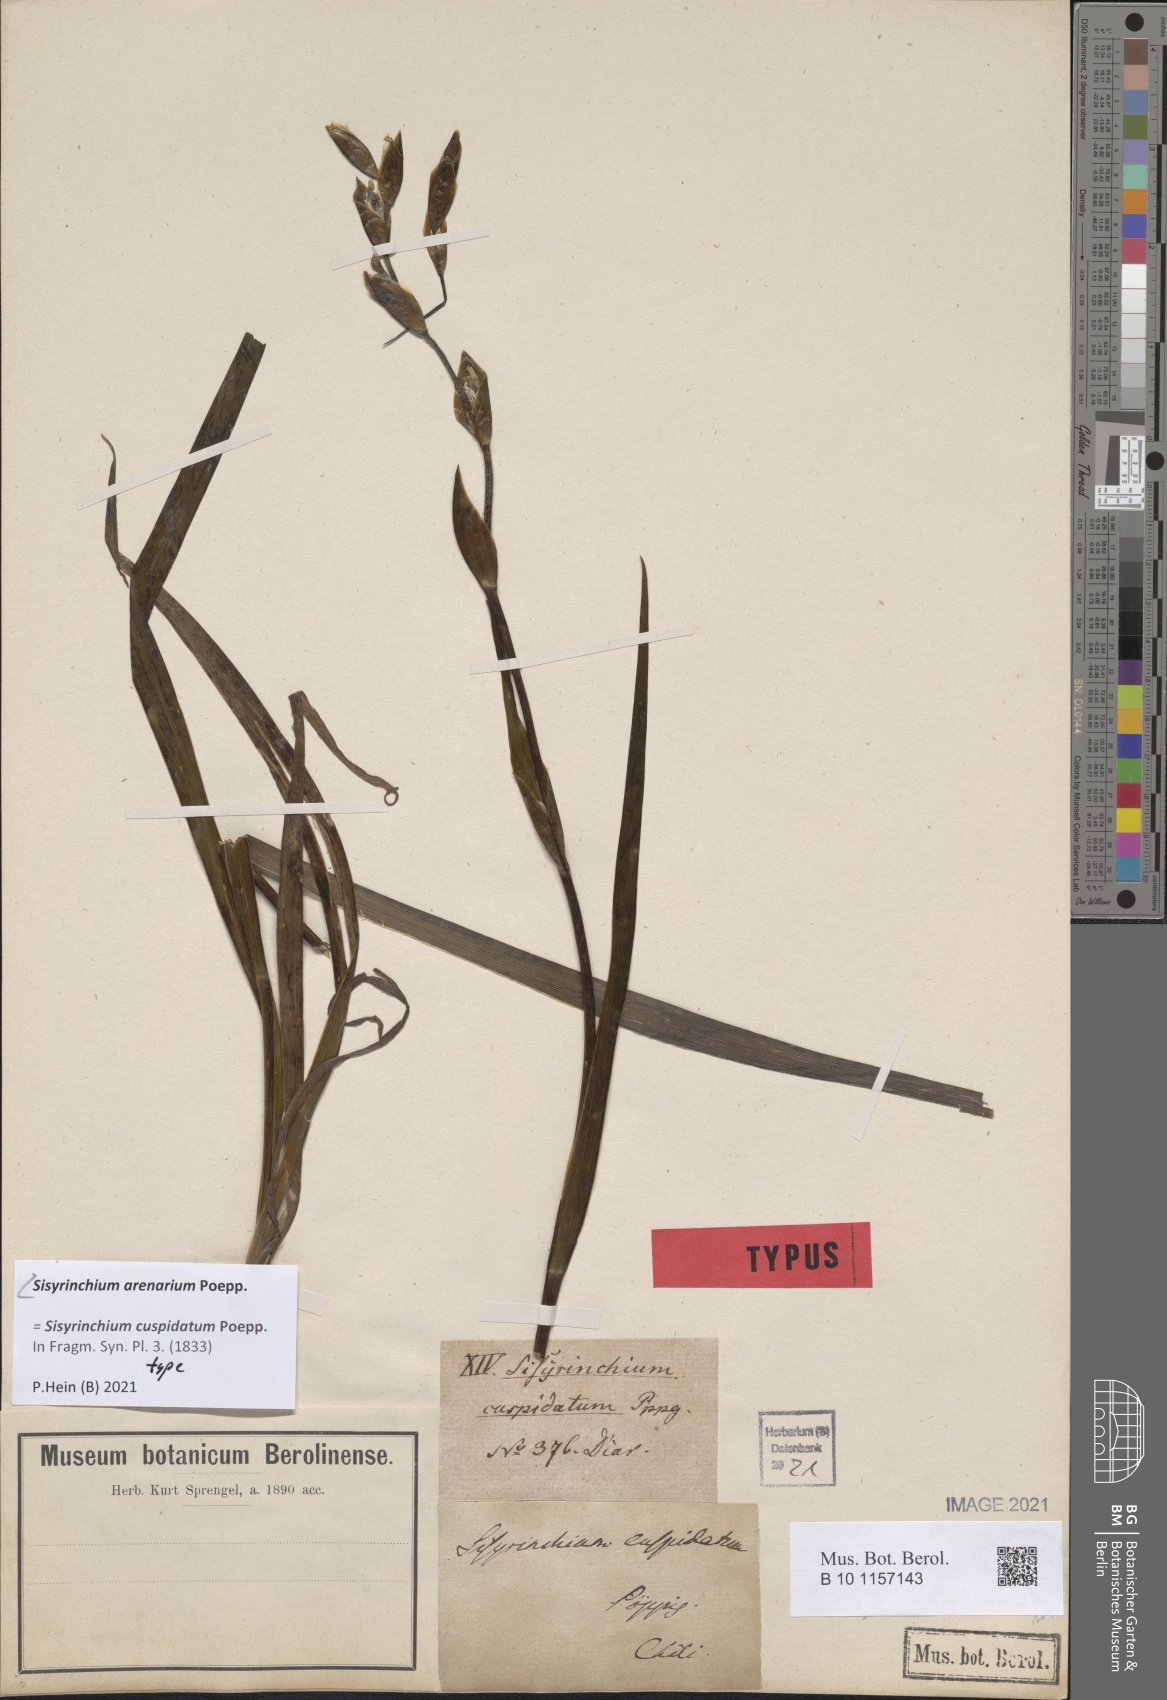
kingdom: Plantae
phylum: Tracheophyta
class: Liliopsida
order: Asparagales
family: Iridaceae
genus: Sisyrinchium
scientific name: Sisyrinchium arenarium
